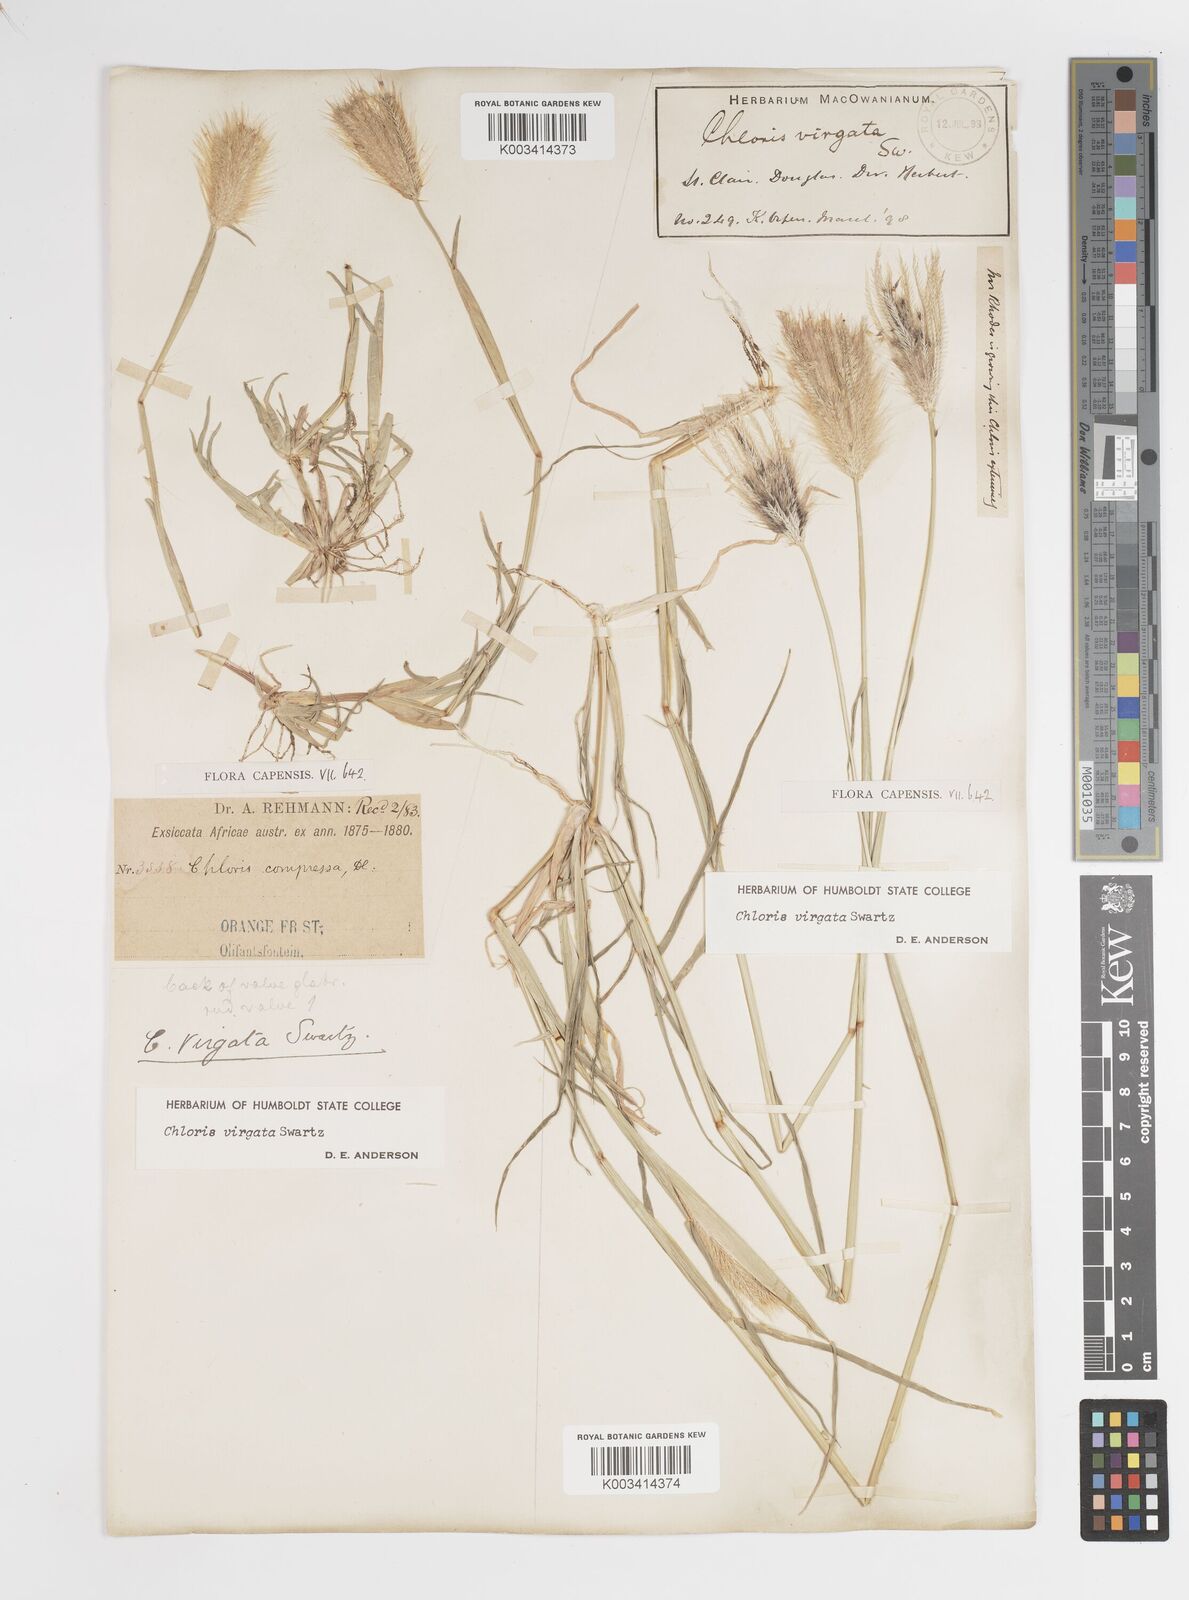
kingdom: Plantae
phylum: Tracheophyta
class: Liliopsida
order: Poales
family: Poaceae
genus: Chloris
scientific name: Chloris virgata
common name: Feathery rhodes-grass
